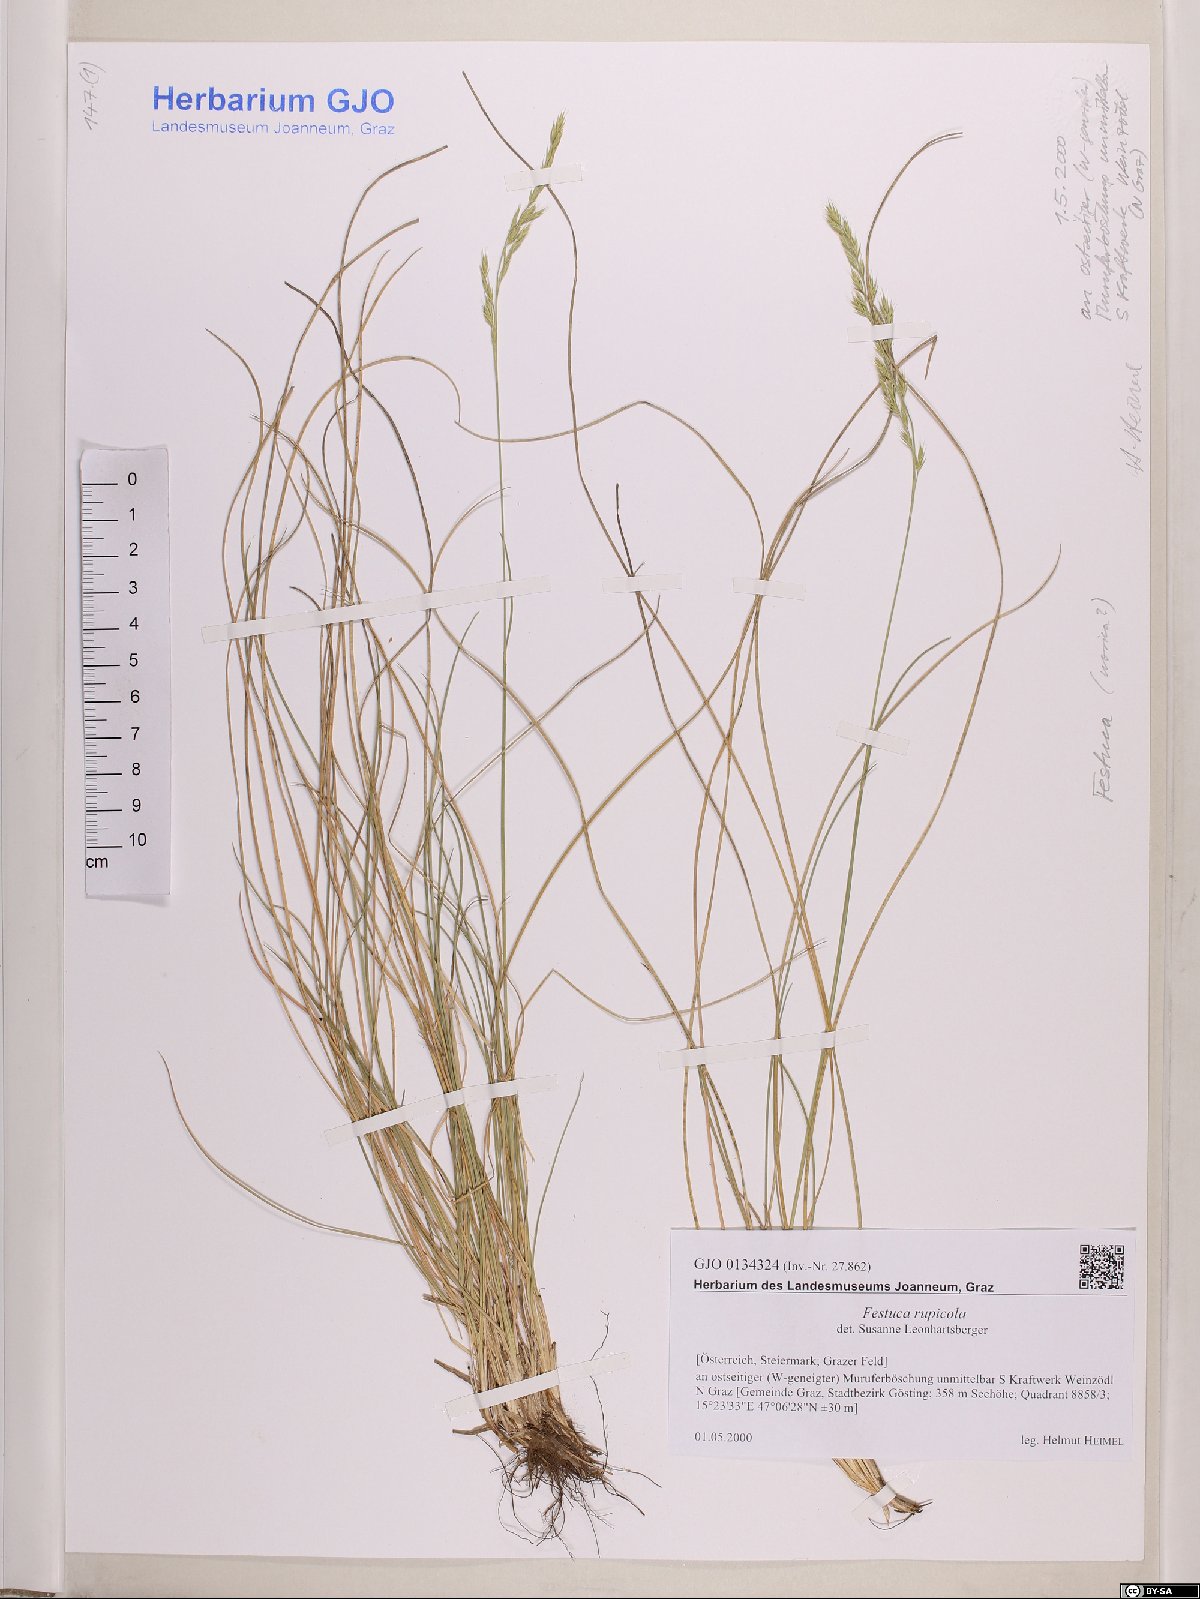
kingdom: Plantae
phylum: Tracheophyta
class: Liliopsida
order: Poales
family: Poaceae
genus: Festuca
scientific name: Festuca rupicola
